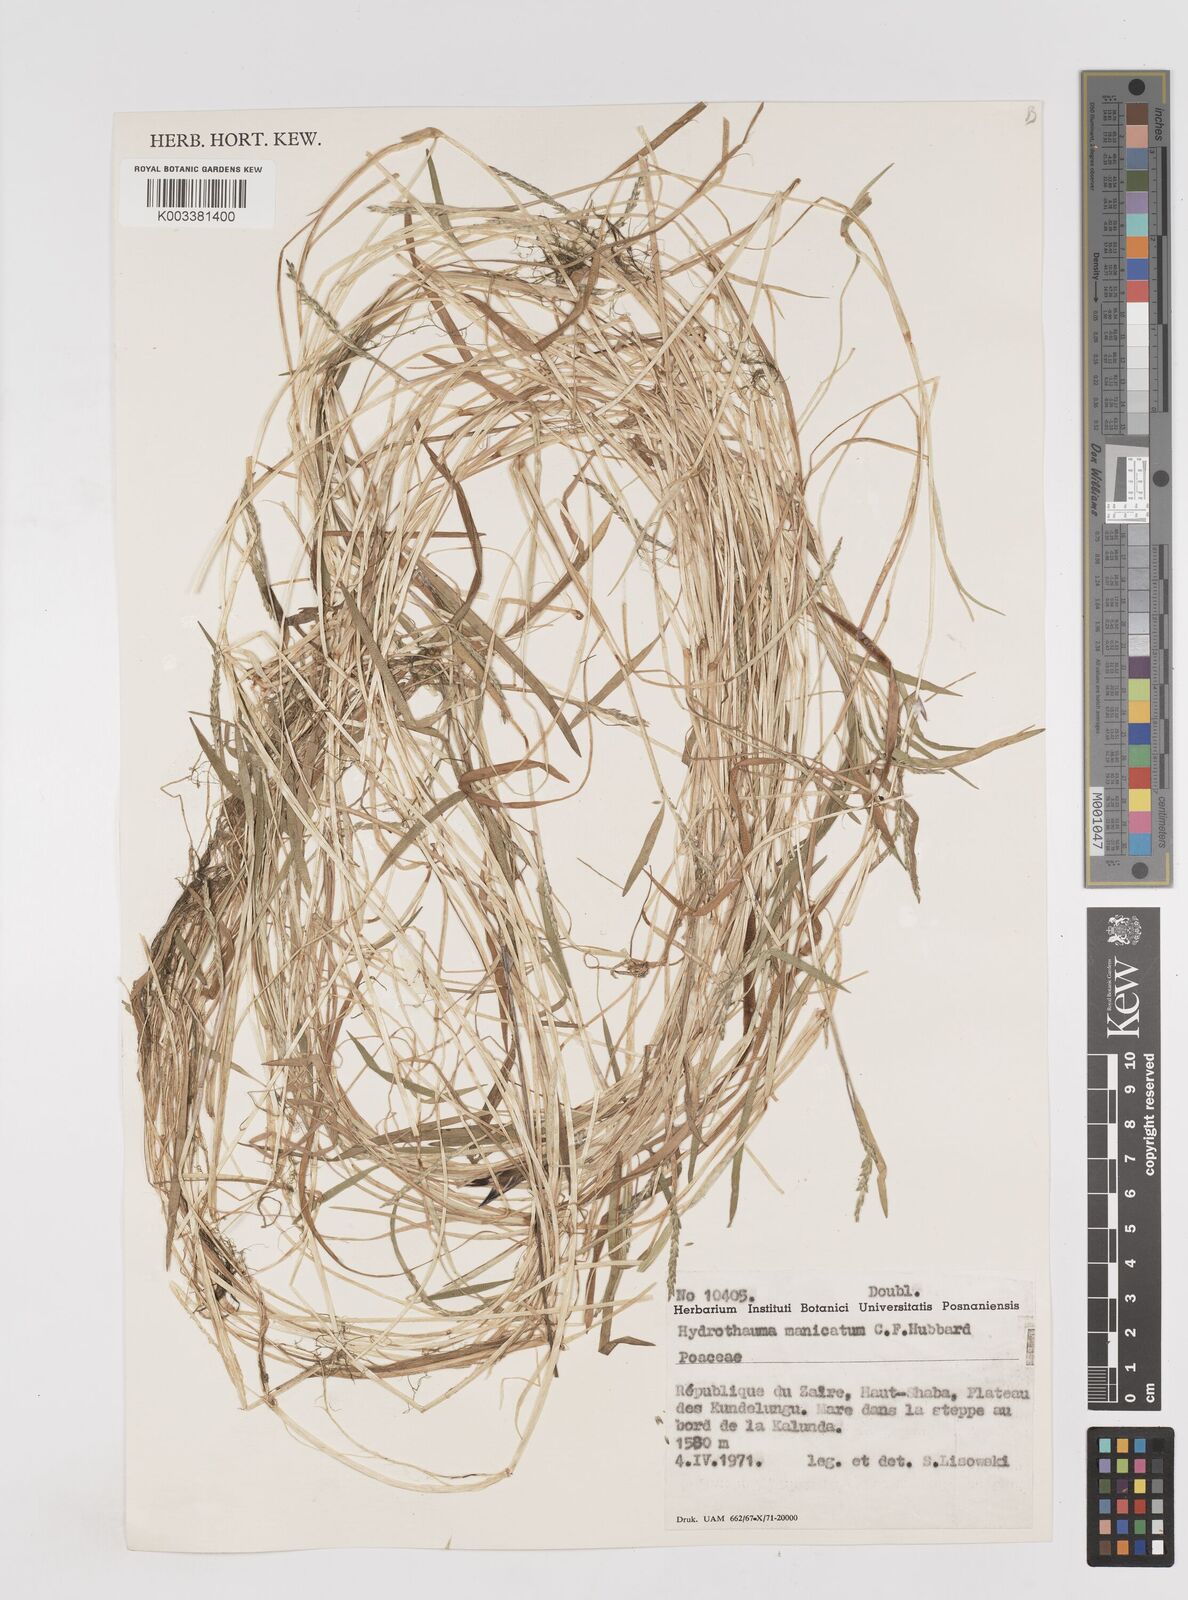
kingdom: Plantae
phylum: Tracheophyta
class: Liliopsida
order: Poales
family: Poaceae
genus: Hydrothauma
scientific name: Hydrothauma manicatum
